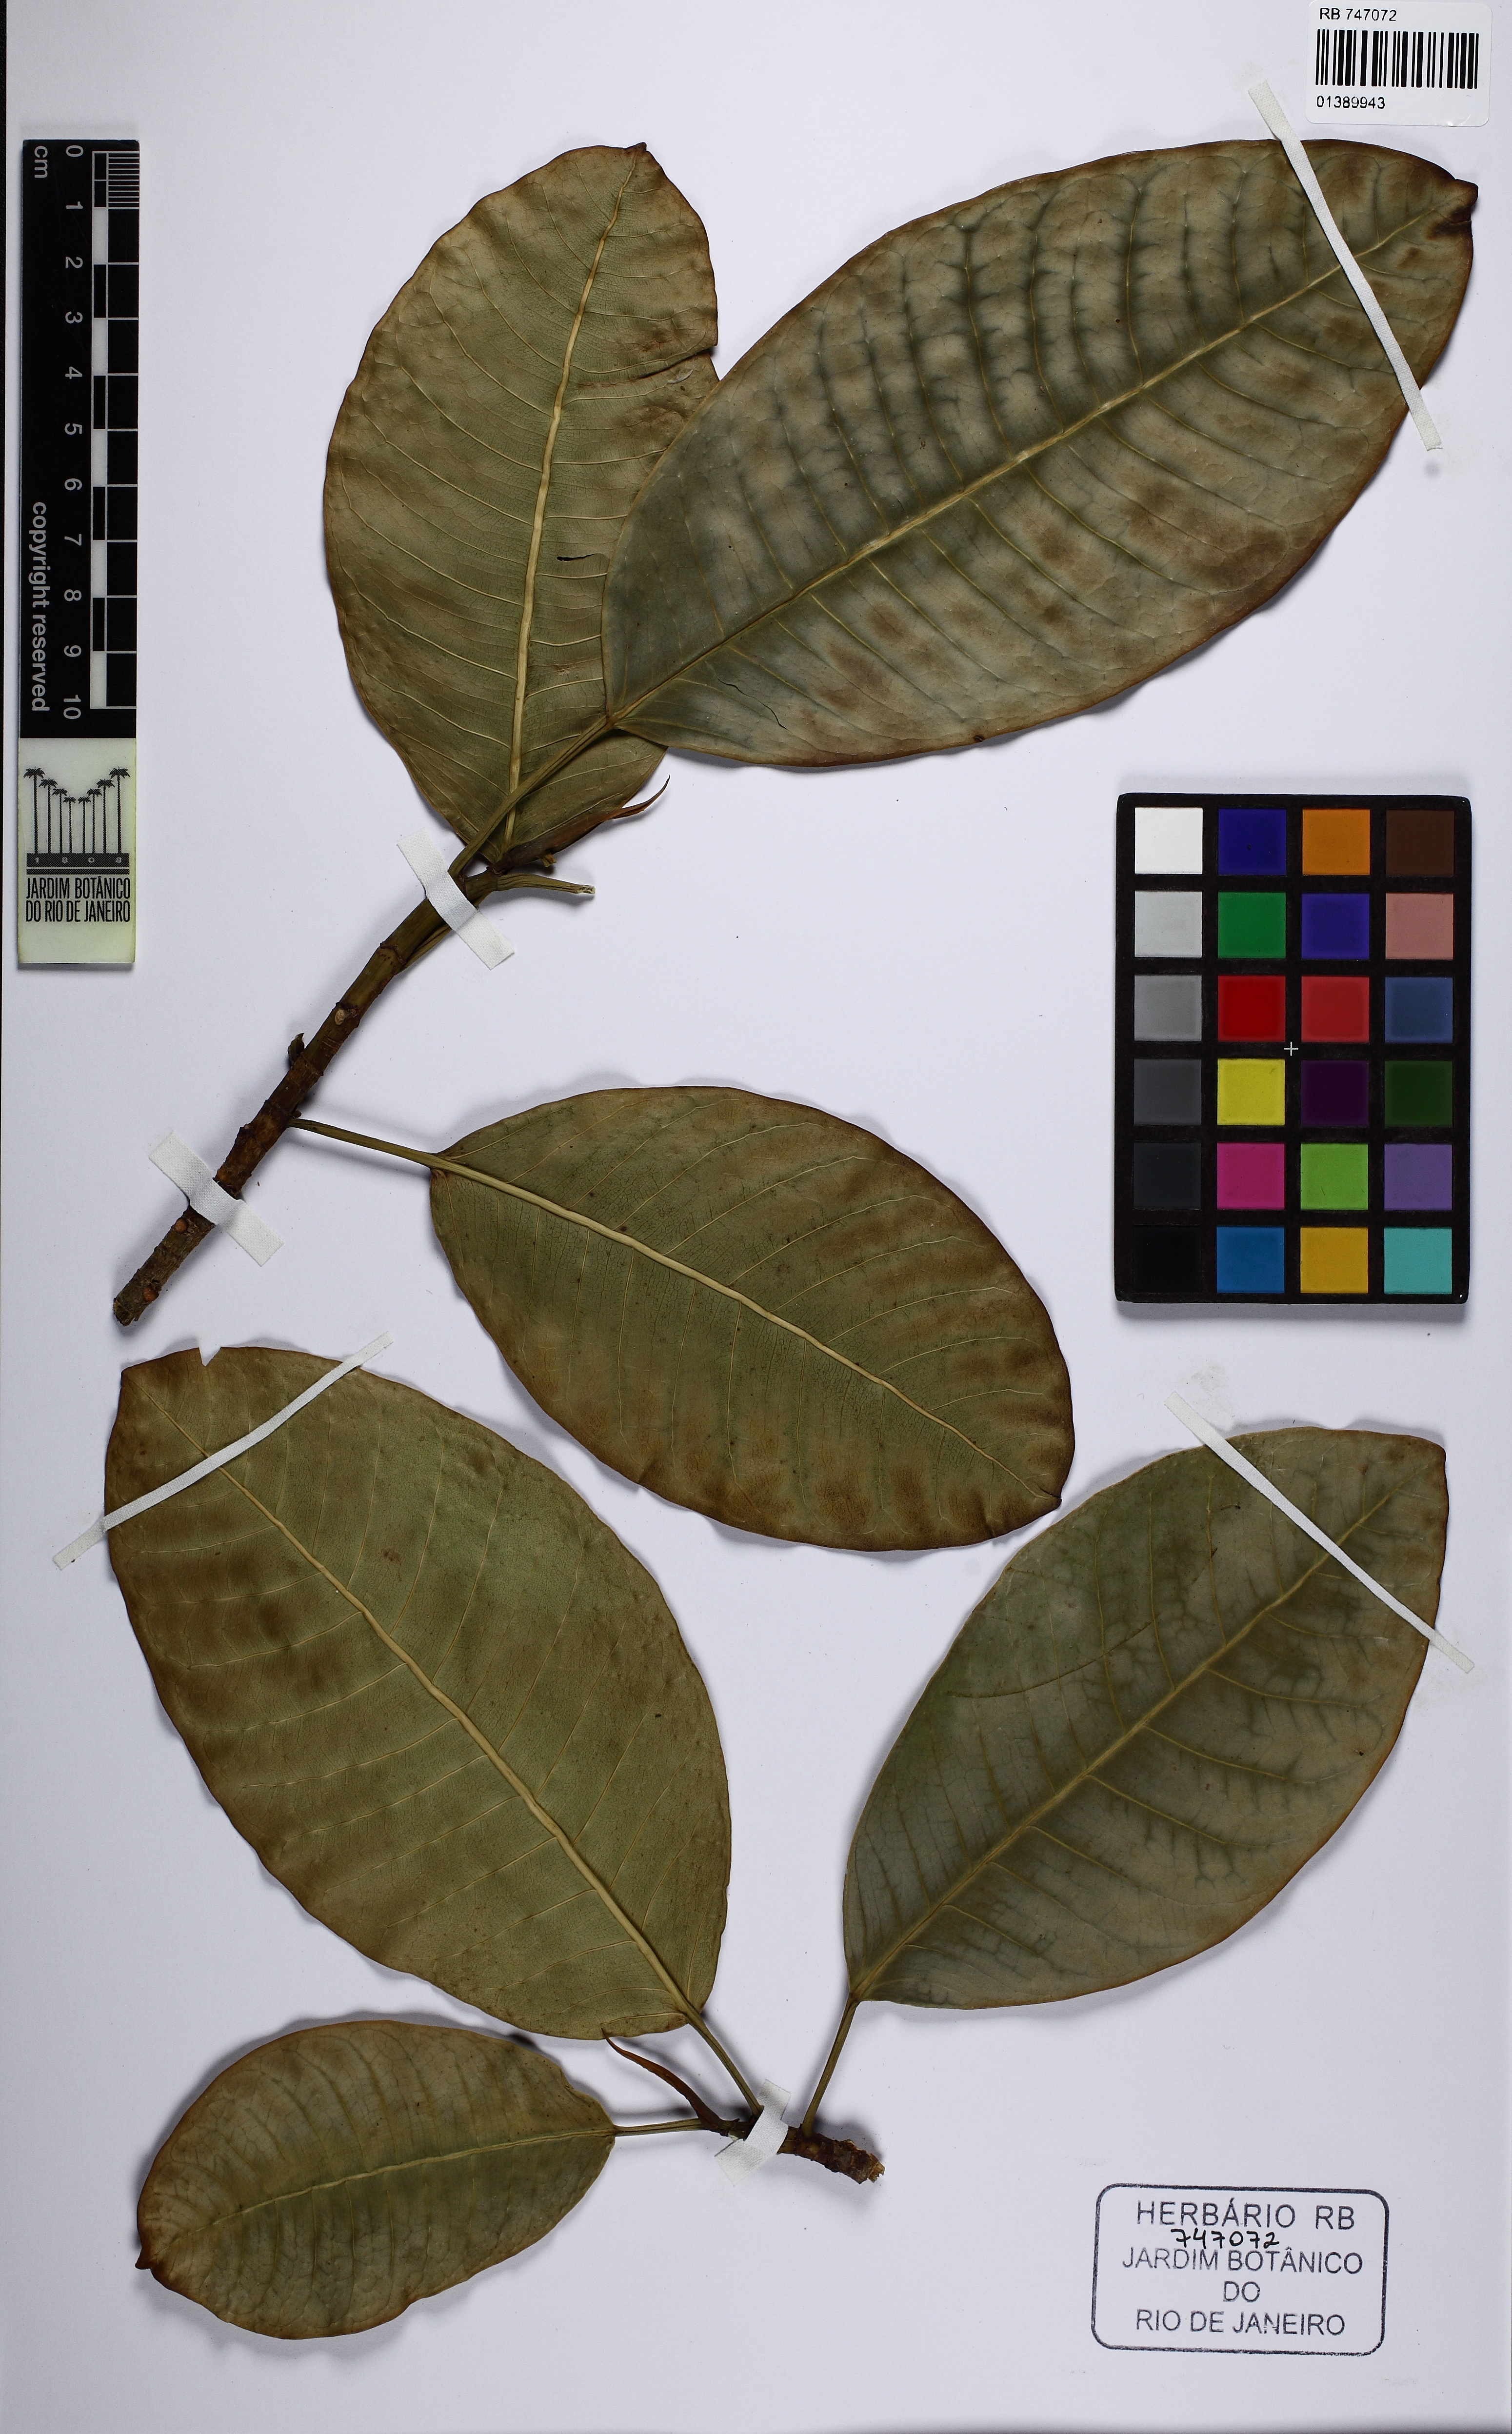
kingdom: Plantae
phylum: Tracheophyta
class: Magnoliopsida
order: Rosales
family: Moraceae
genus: Ficus
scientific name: Ficus latipedunculata
